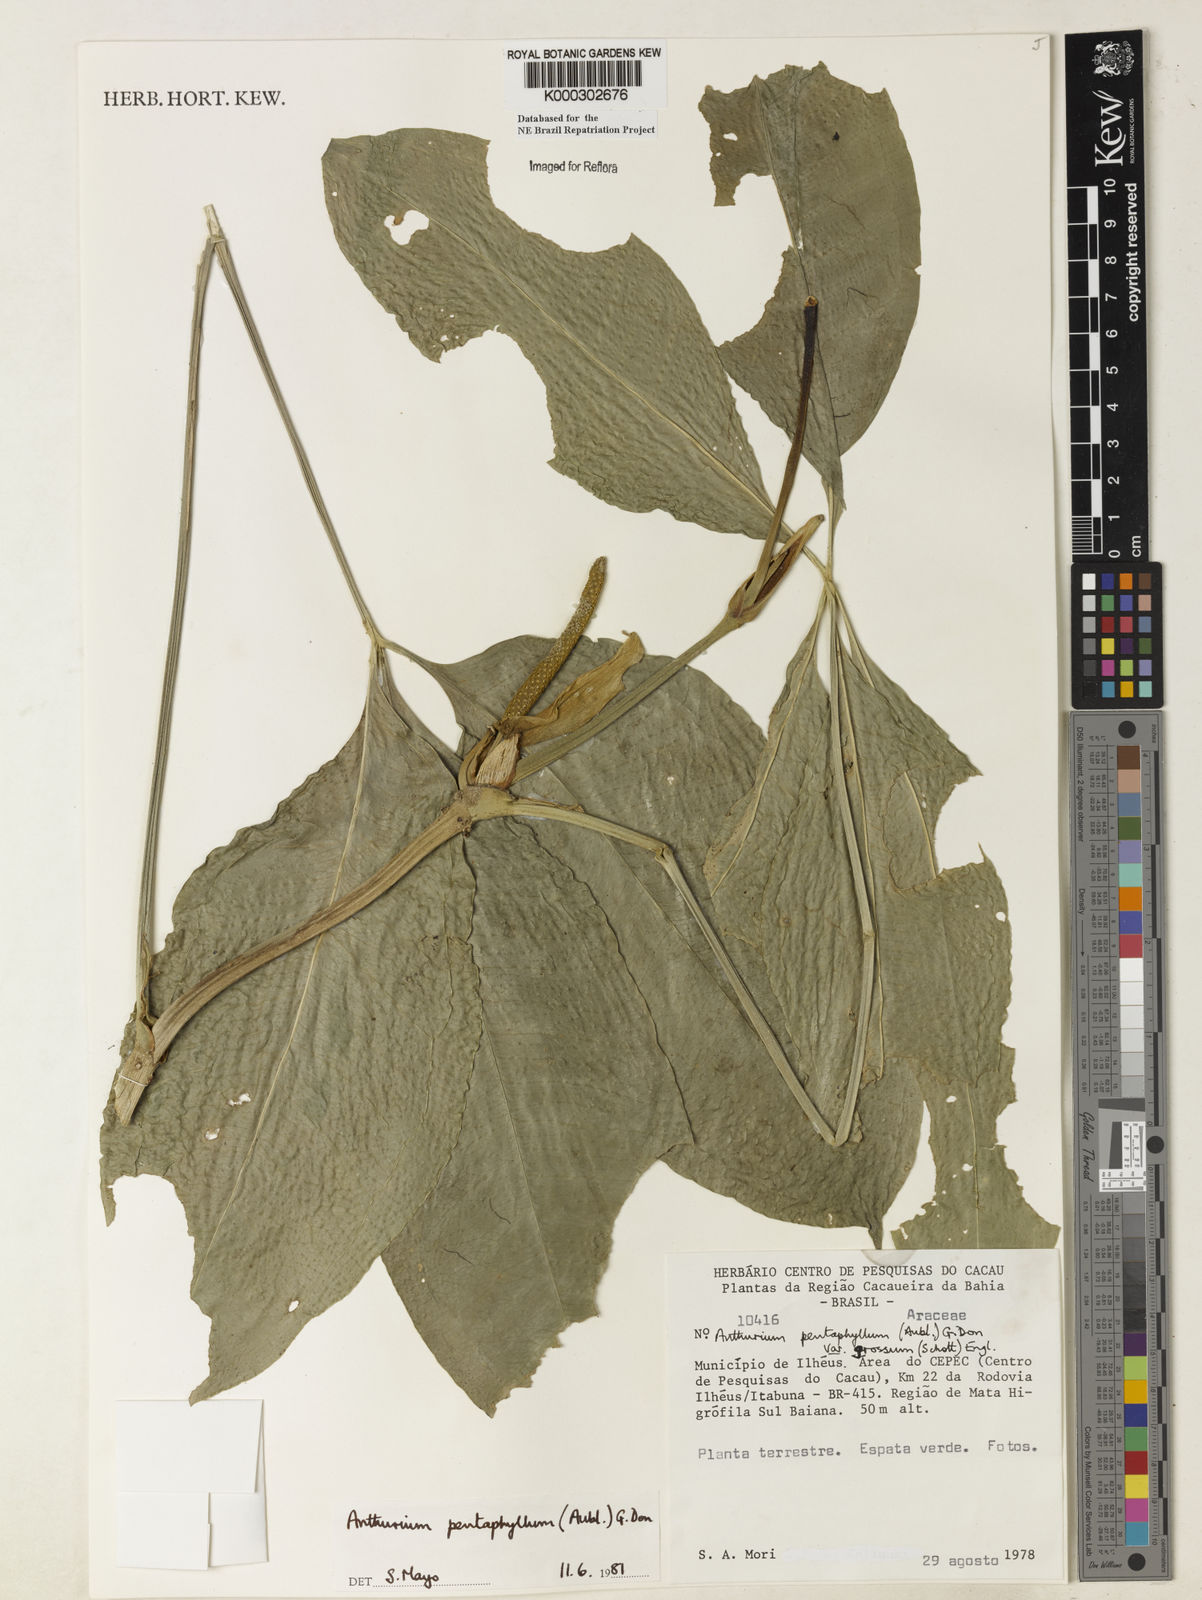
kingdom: Plantae
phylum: Tracheophyta
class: Liliopsida
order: Alismatales
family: Araceae
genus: Anthurium
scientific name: Anthurium pentaphyllum
